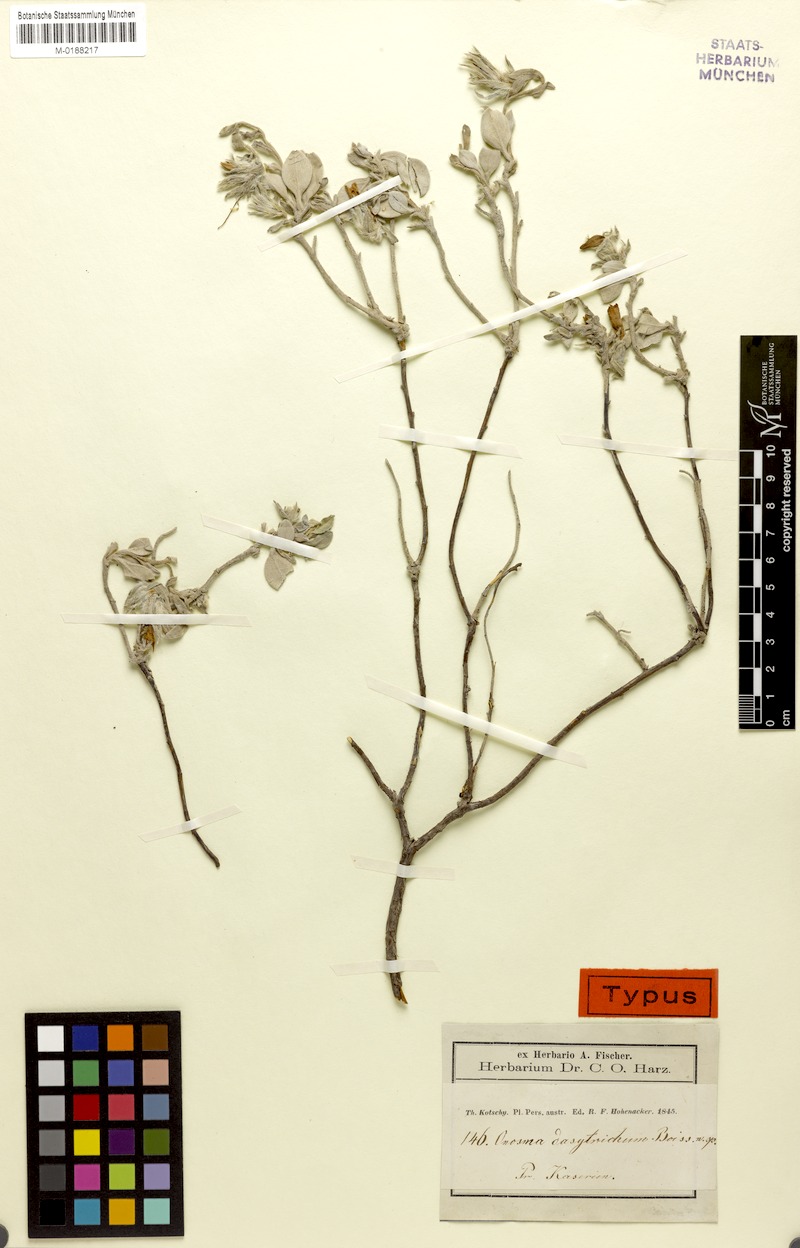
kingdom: Plantae
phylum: Tracheophyta
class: Magnoliopsida
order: Boraginales
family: Boraginaceae
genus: Onosma
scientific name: Onosma dasytricha
